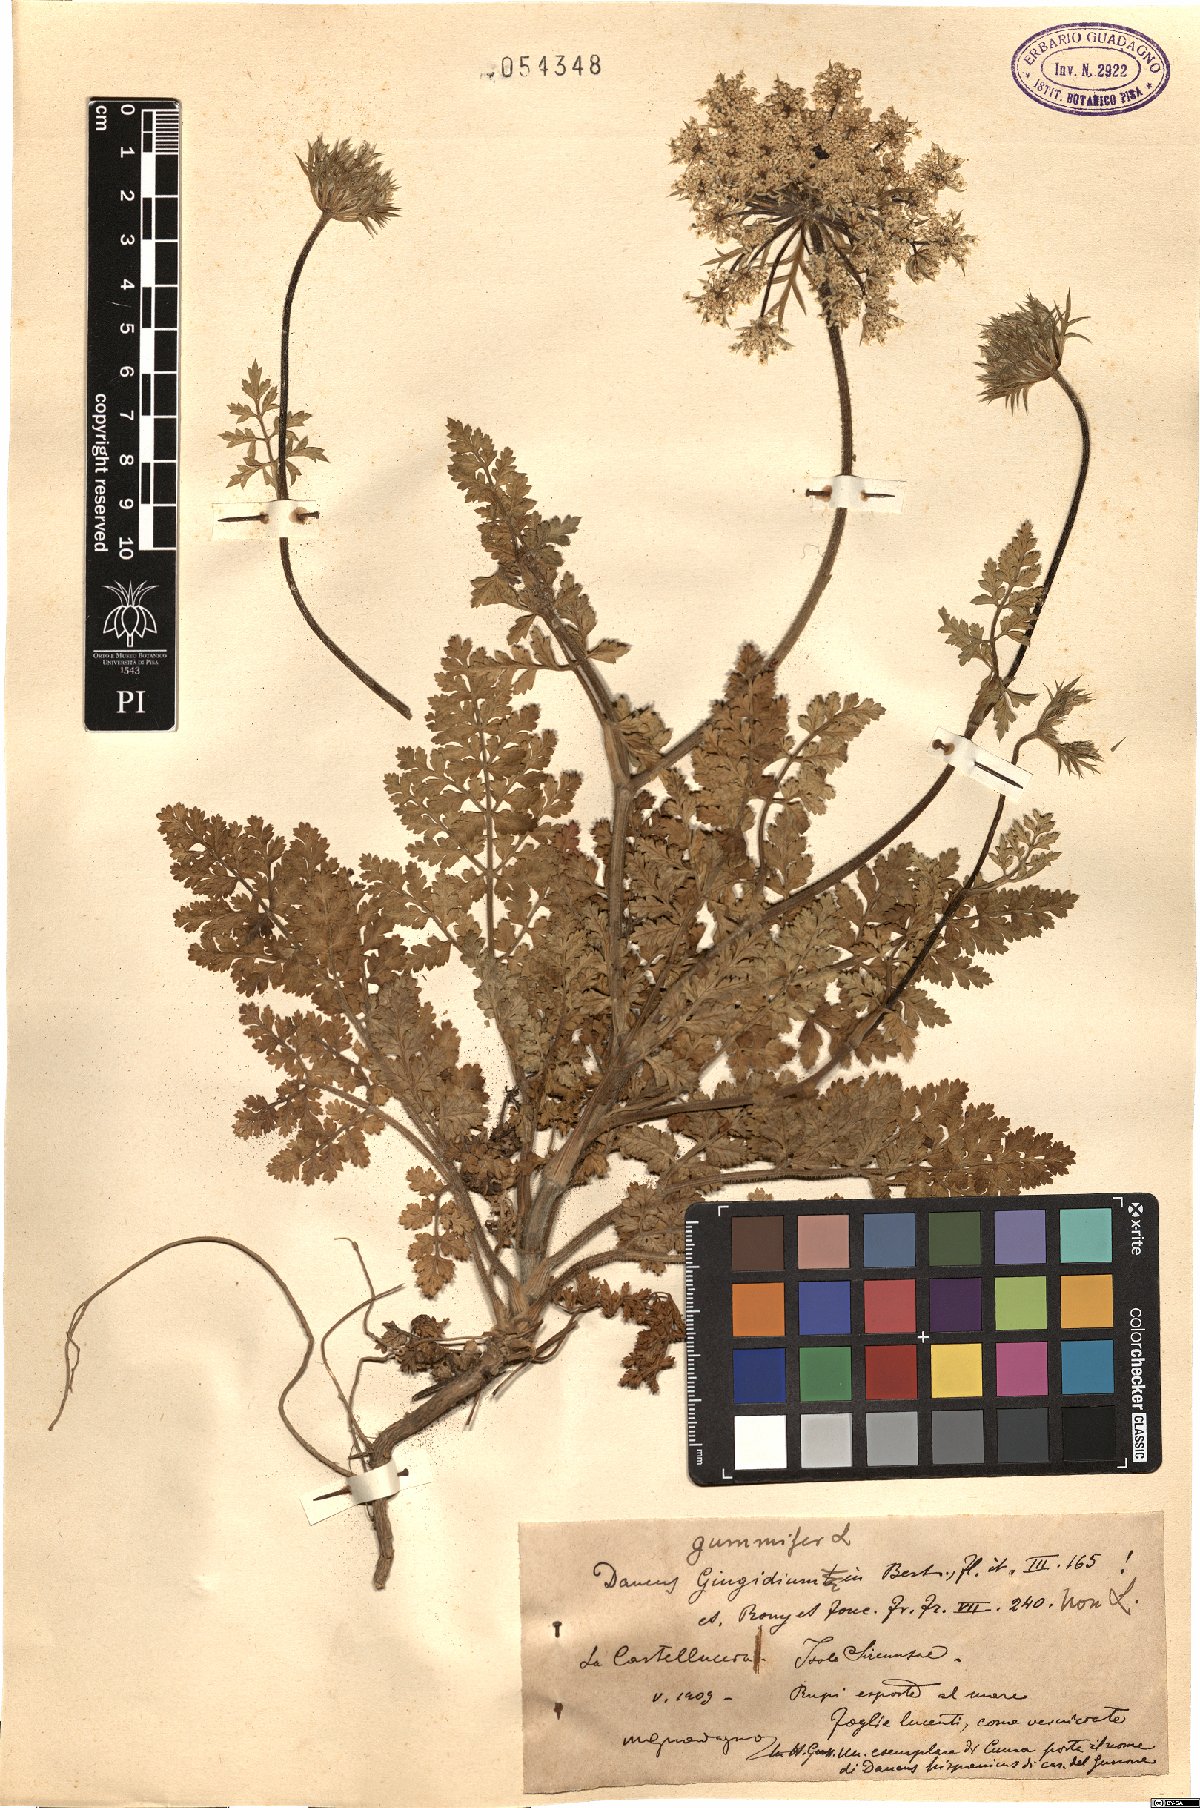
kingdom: Plantae
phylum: Tracheophyta
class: Magnoliopsida
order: Apiales
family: Apiaceae
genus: Daucus
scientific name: Daucus carota
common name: Wild carrot
